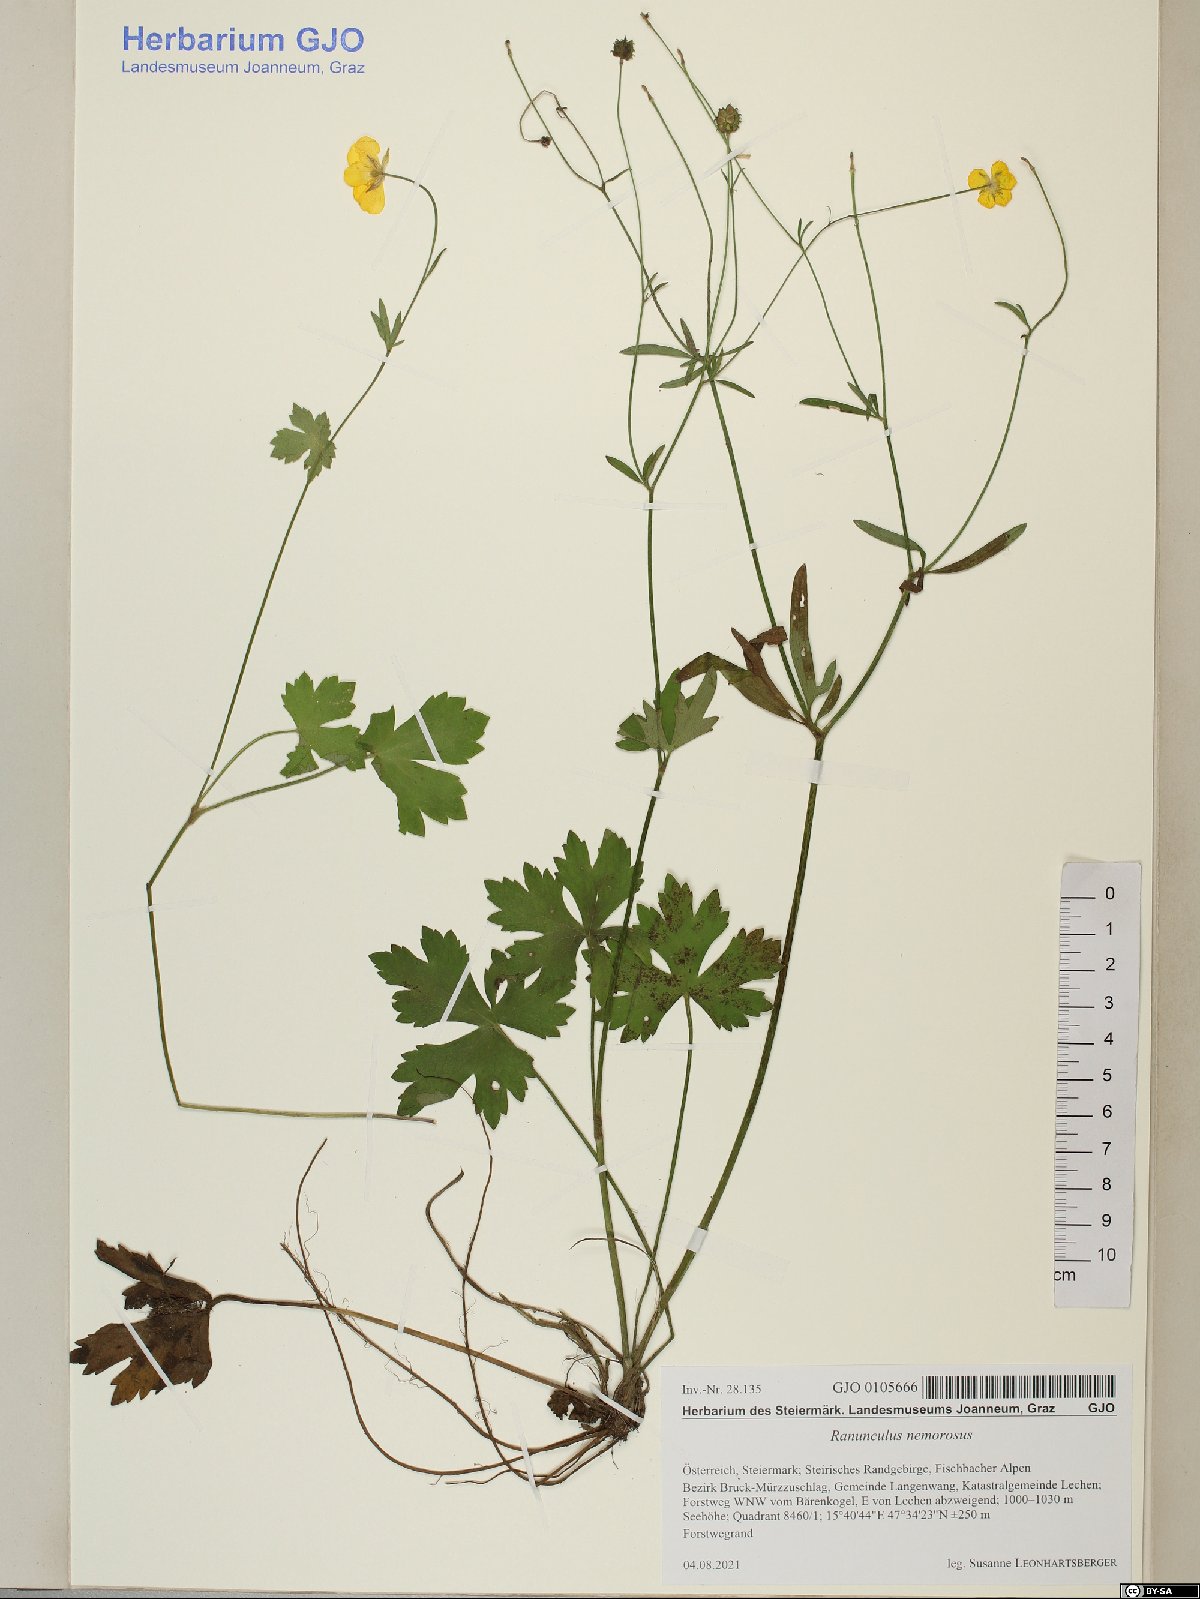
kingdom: Plantae
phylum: Tracheophyta
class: Magnoliopsida
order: Ranunculales
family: Ranunculaceae
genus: Ranunculus
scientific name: Ranunculus polyanthemos
